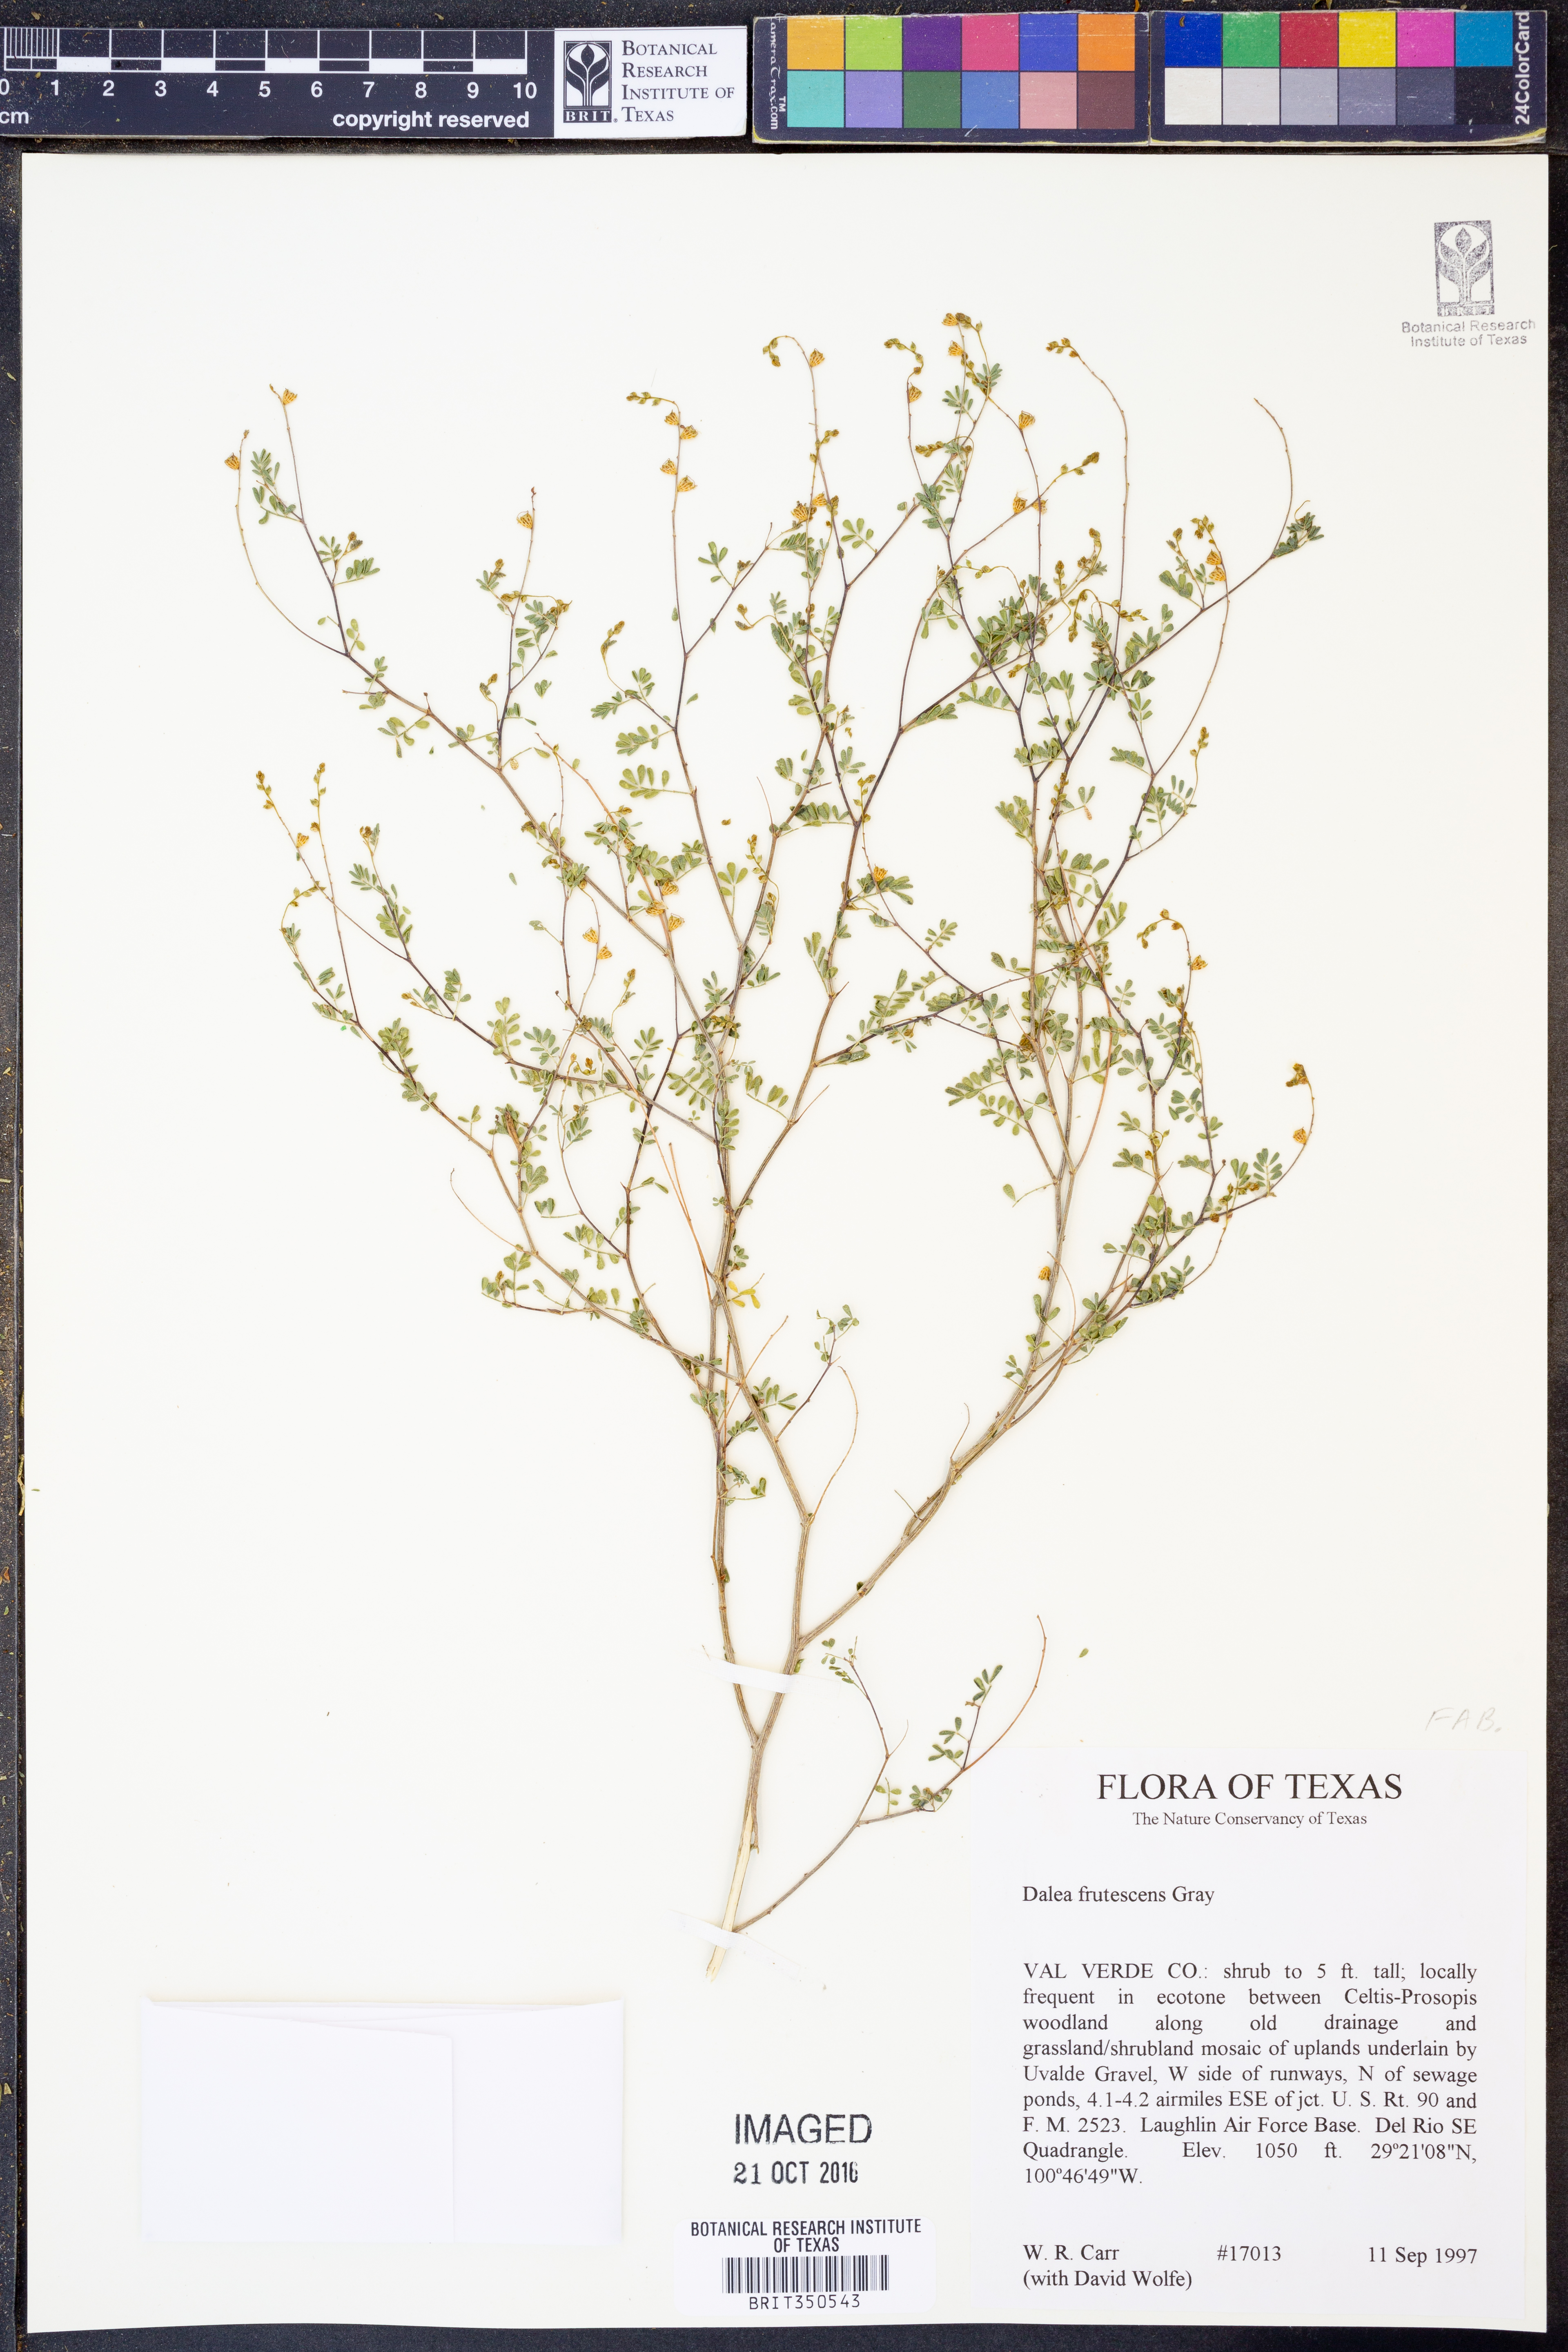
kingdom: Plantae
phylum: Tracheophyta
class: Magnoliopsida
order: Fabales
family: Fabaceae
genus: Dalea
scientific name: Dalea frutescens
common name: Black dalea
